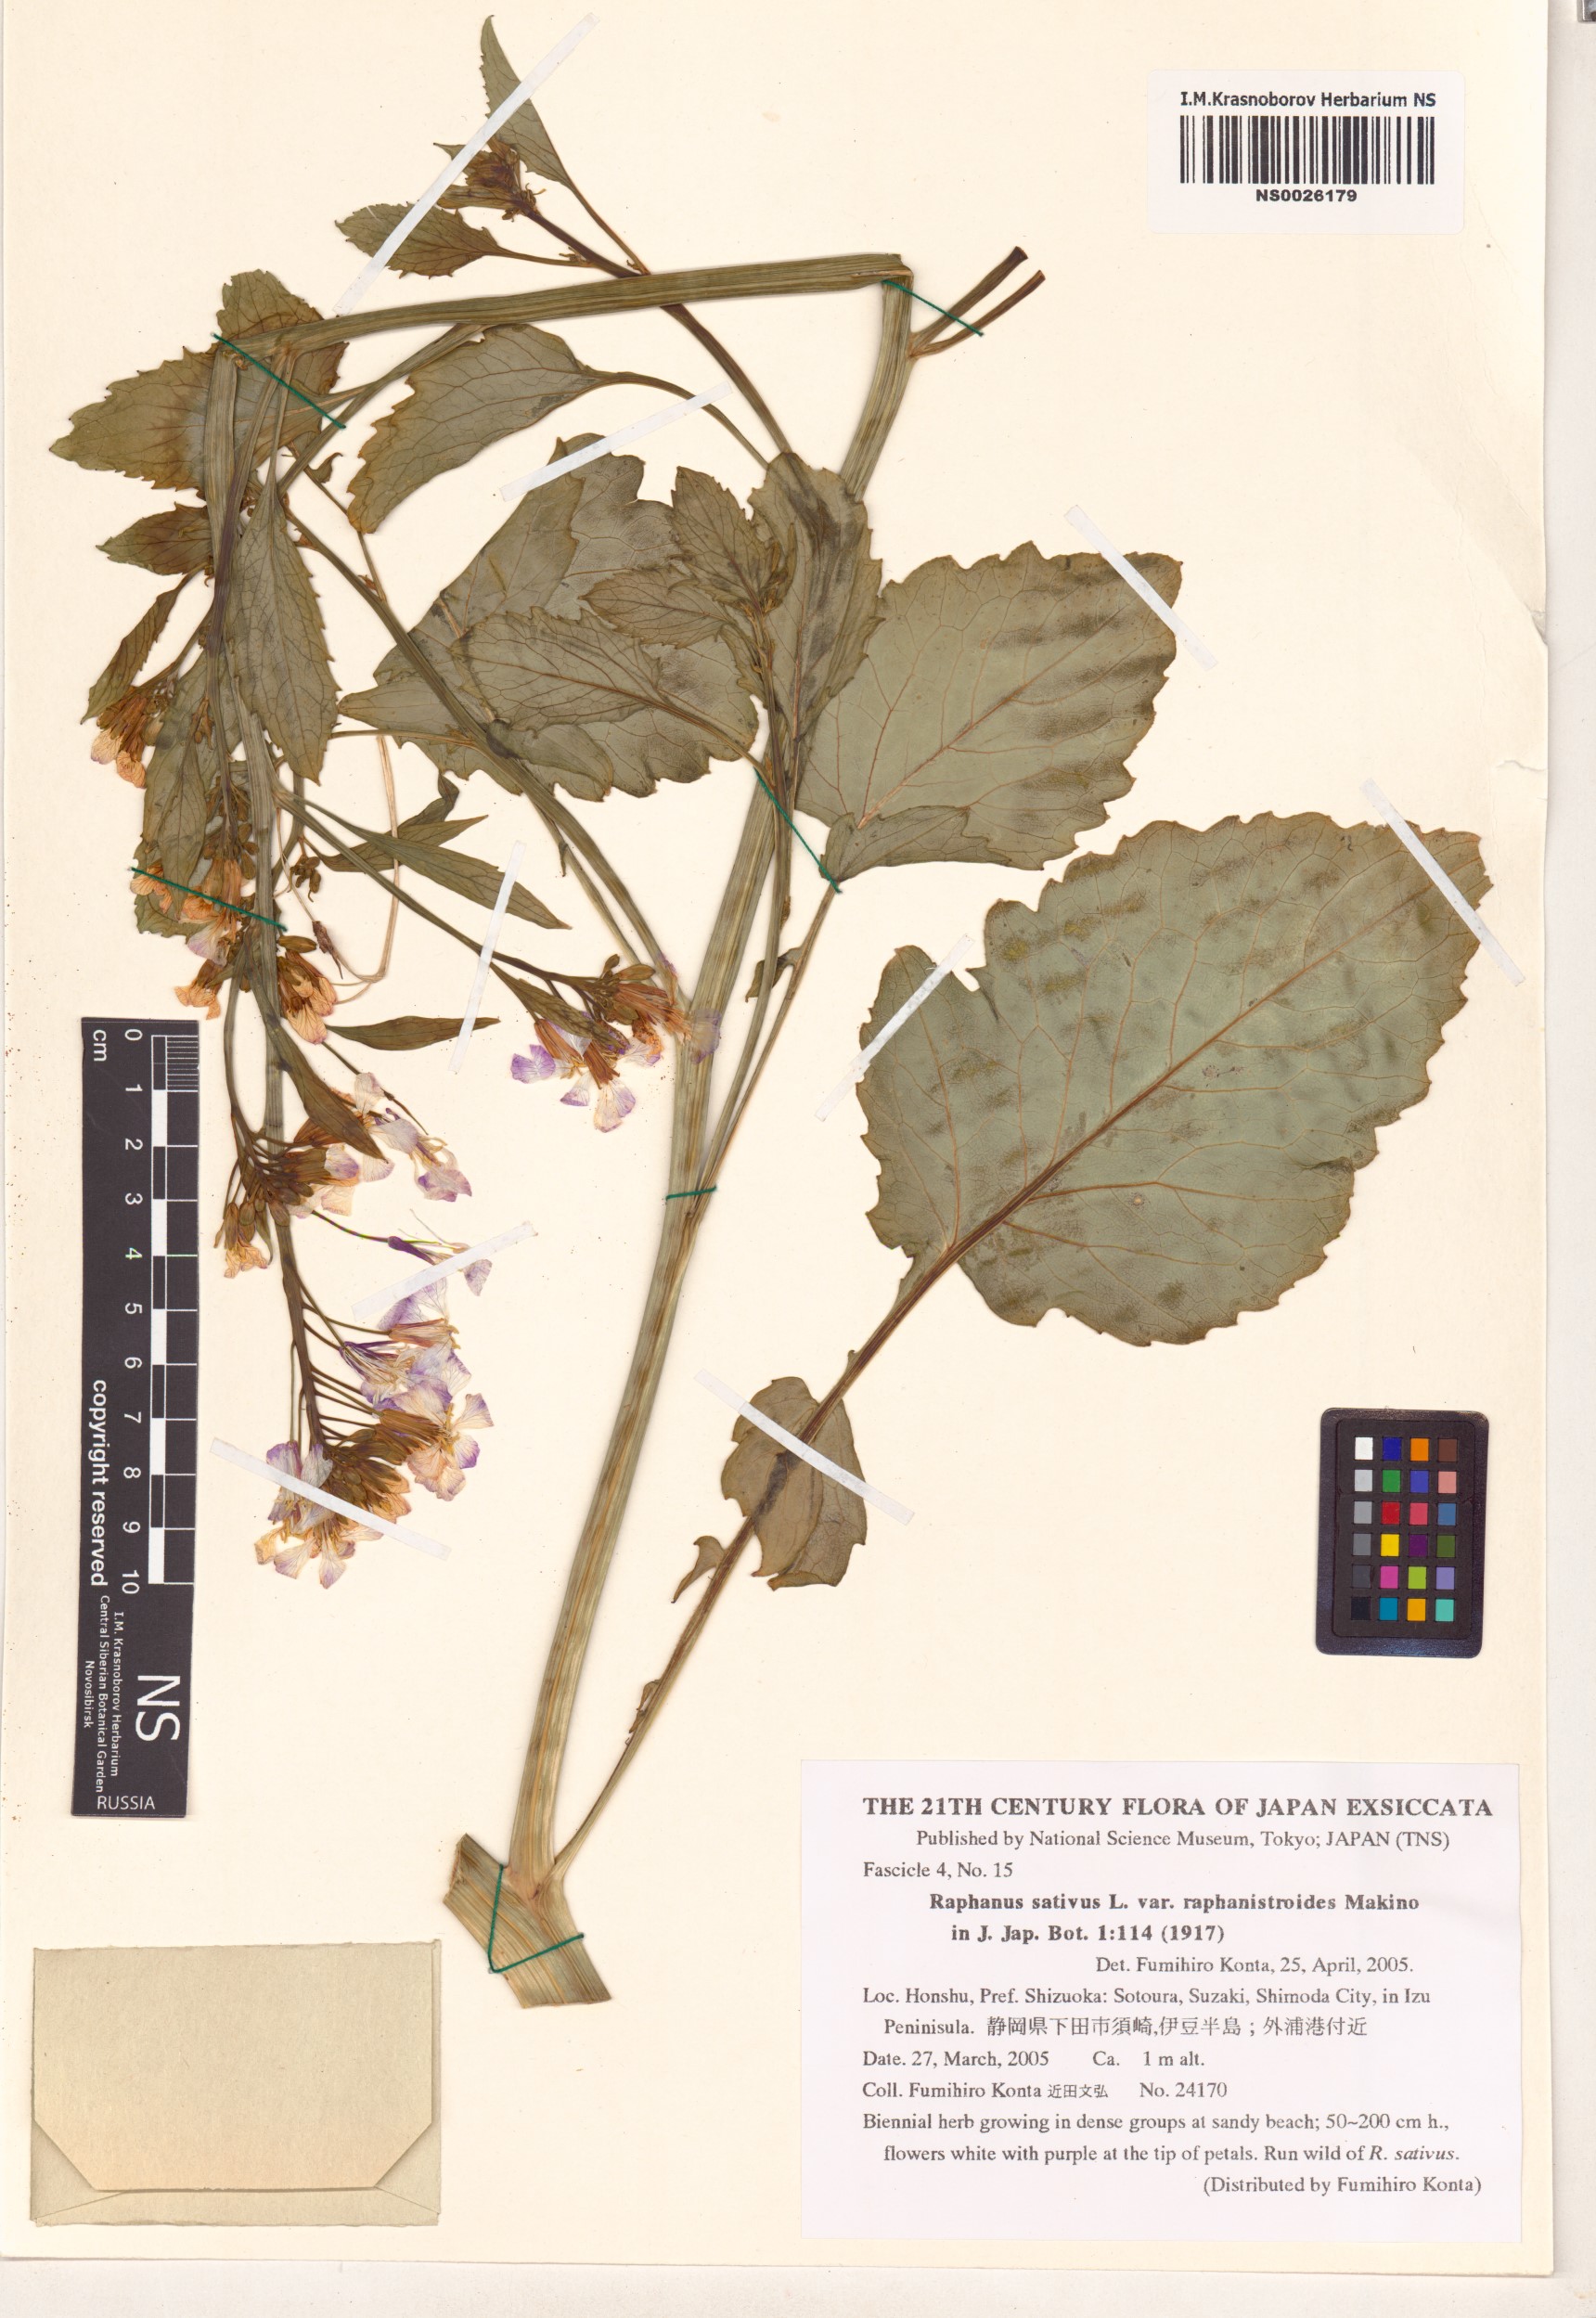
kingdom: Plantae
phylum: Tracheophyta
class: Magnoliopsida
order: Brassicales
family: Brassicaceae
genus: Raphanus
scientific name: Raphanus sativus
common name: Cultivated radish
